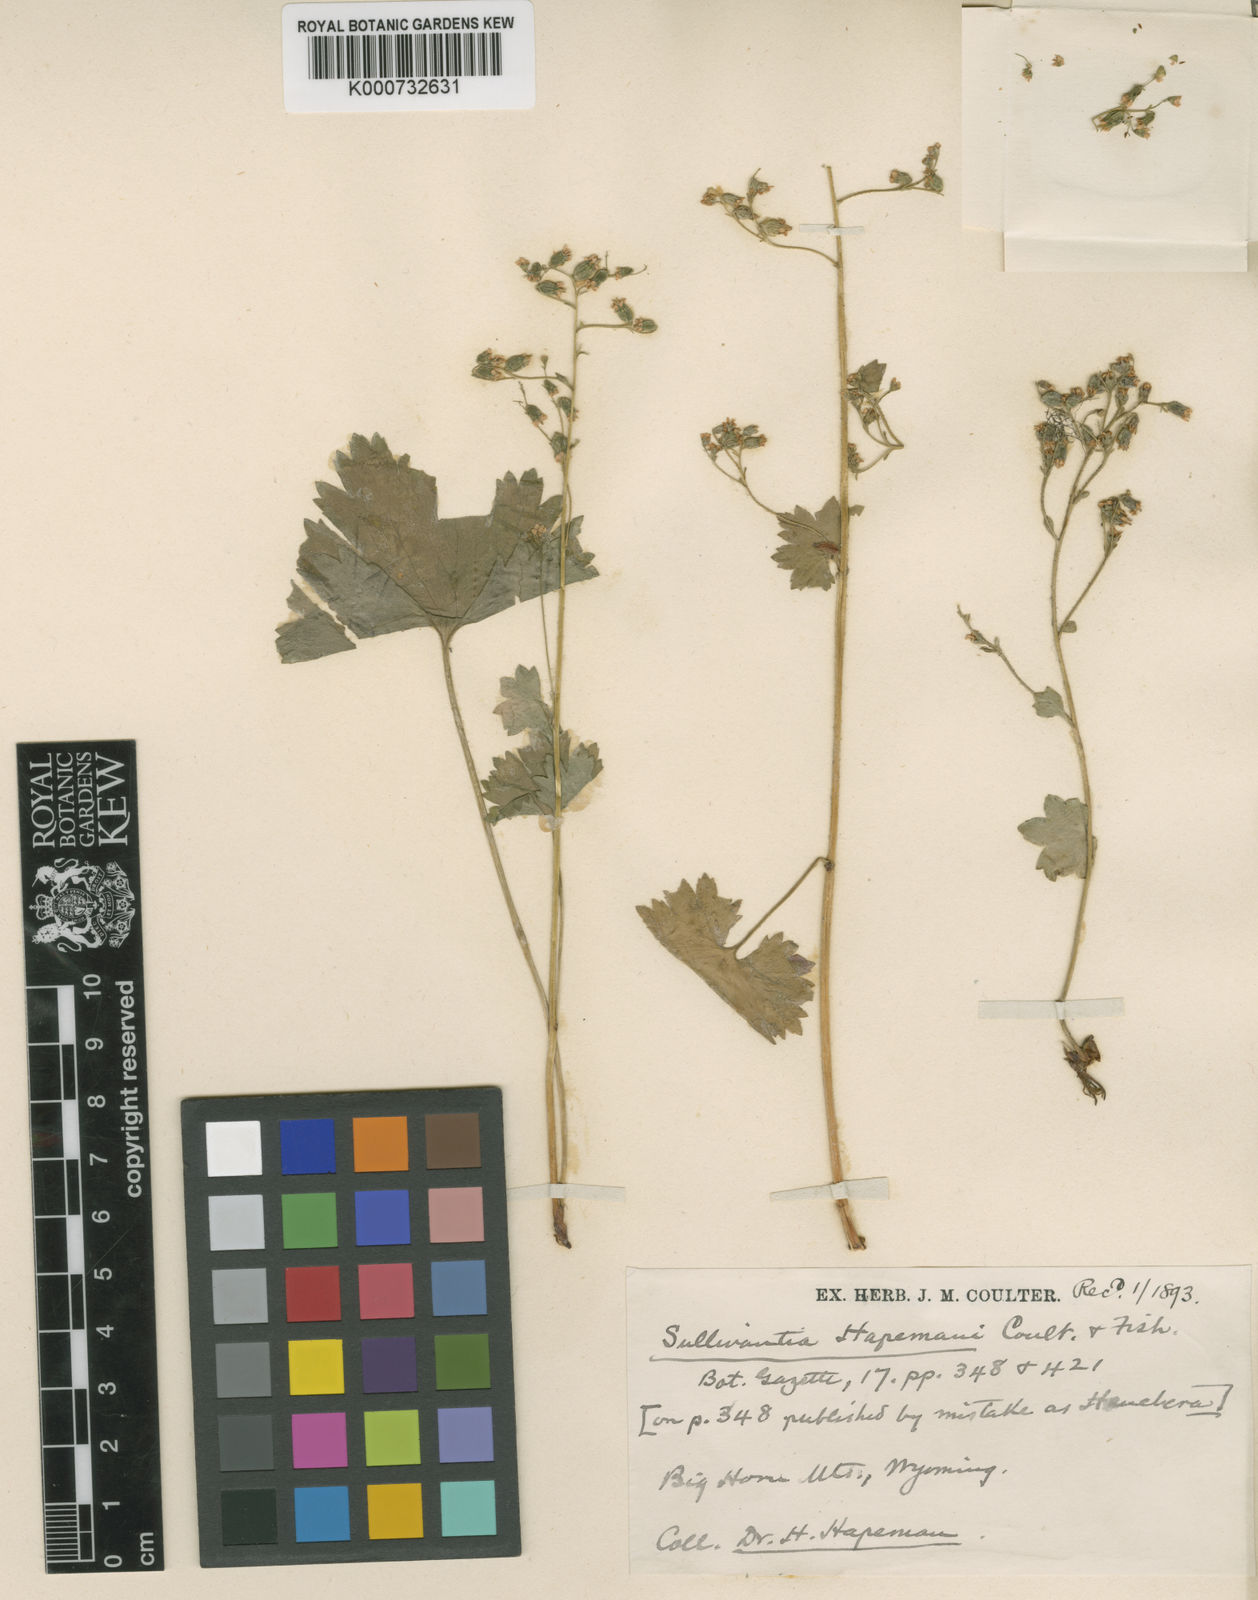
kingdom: Plantae
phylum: Tracheophyta
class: Magnoliopsida
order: Saxifragales
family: Saxifragaceae
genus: Sullivantia
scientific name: Sullivantia hapemanii
